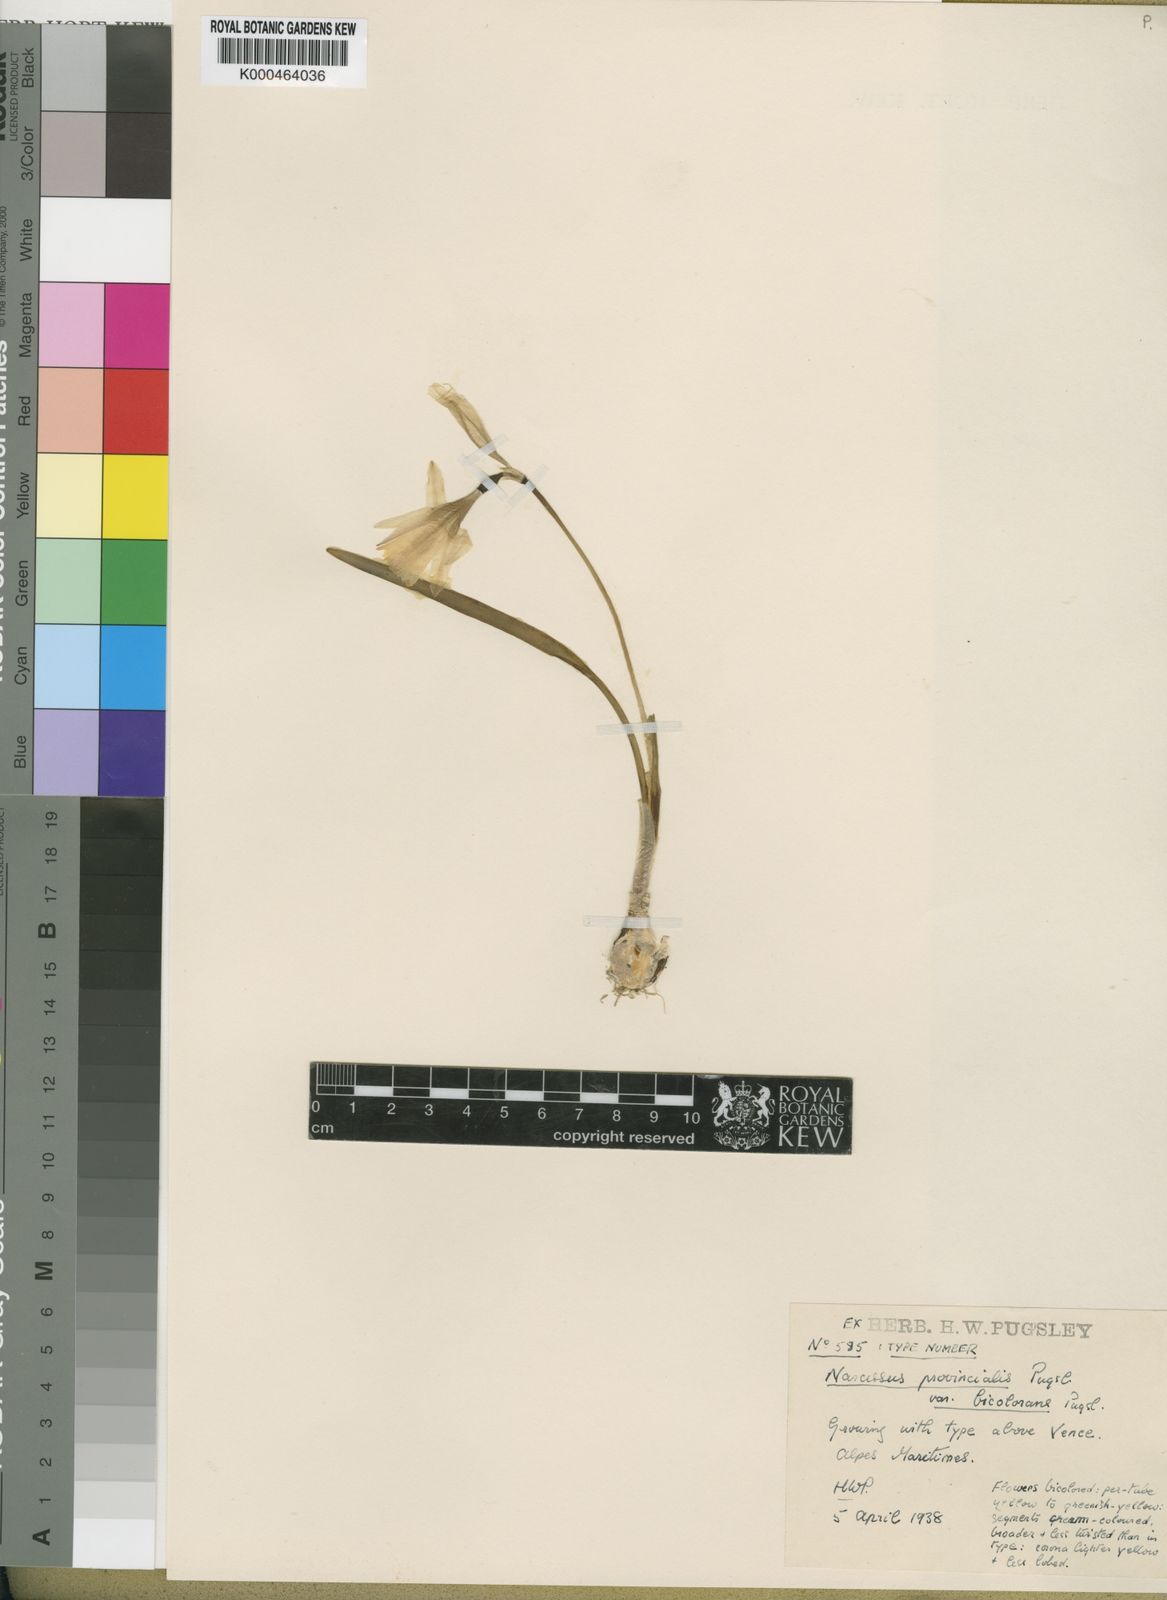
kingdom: Plantae
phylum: Tracheophyta
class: Liliopsida
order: Asparagales
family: Amaryllidaceae
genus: Narcissus
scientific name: Narcissus minor
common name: Lesser daffodil
